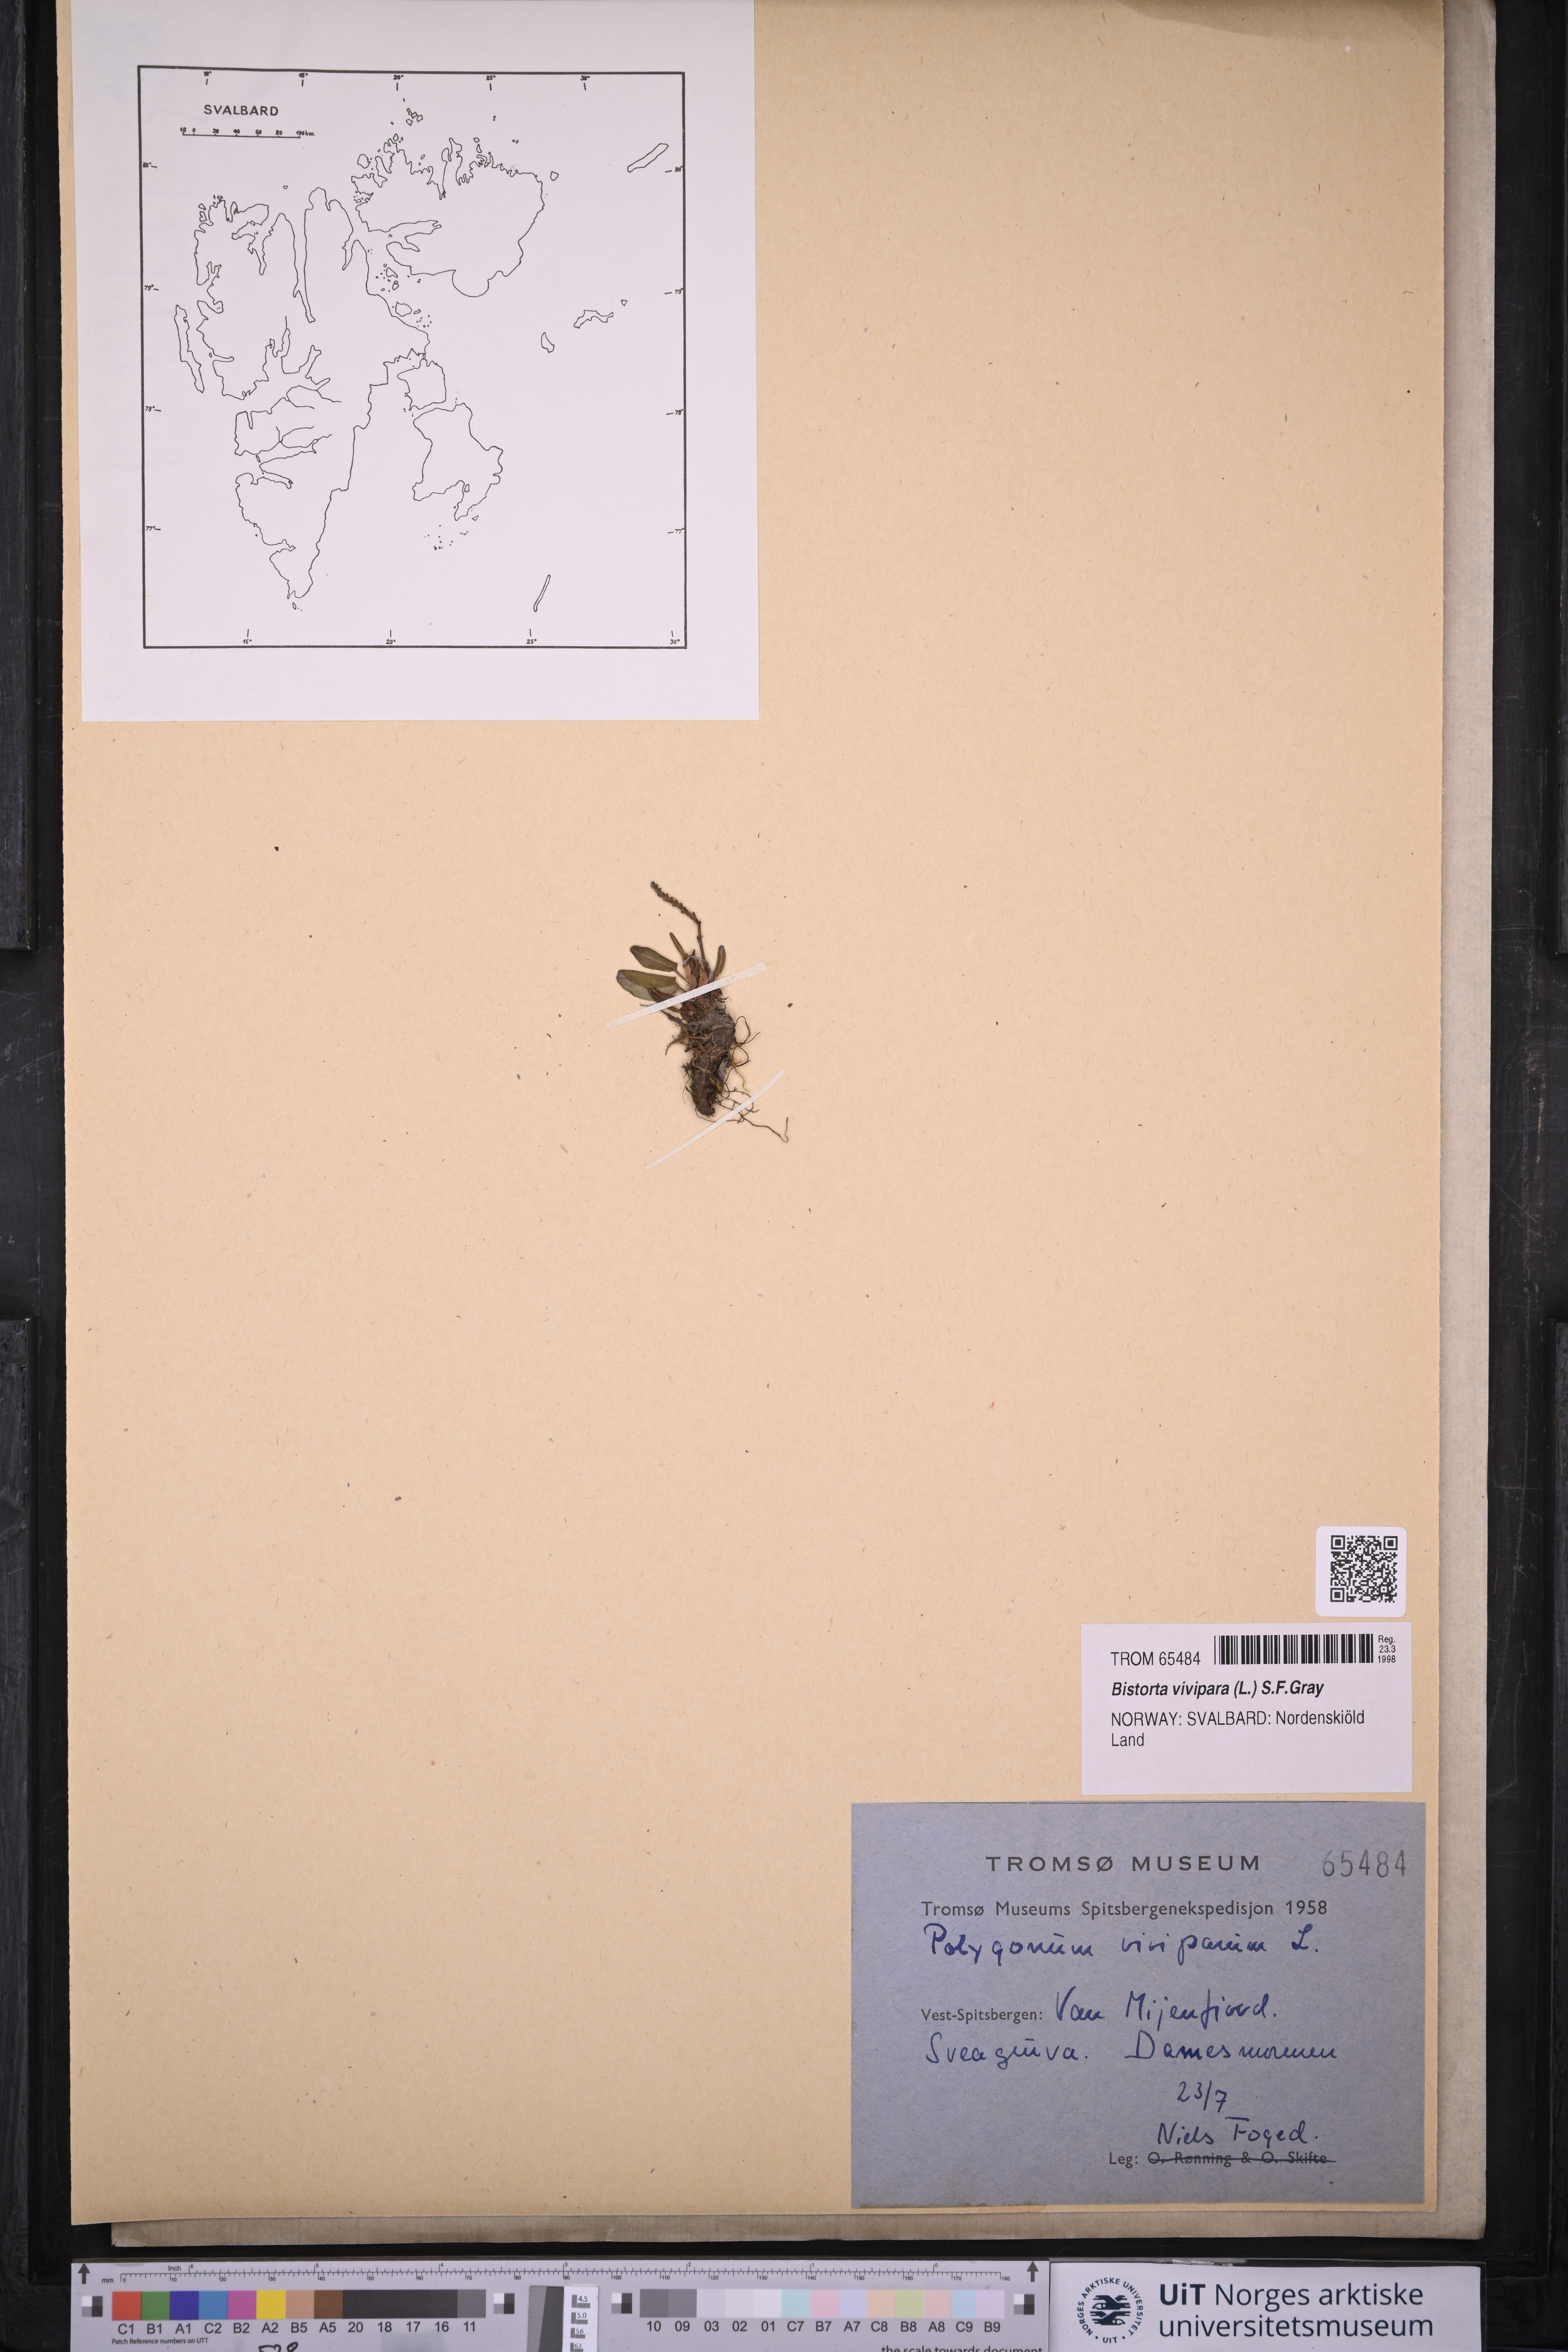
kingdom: Plantae
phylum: Tracheophyta
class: Magnoliopsida
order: Caryophyllales
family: Polygonaceae
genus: Bistorta
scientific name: Bistorta vivipara
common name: Alpine bistort
